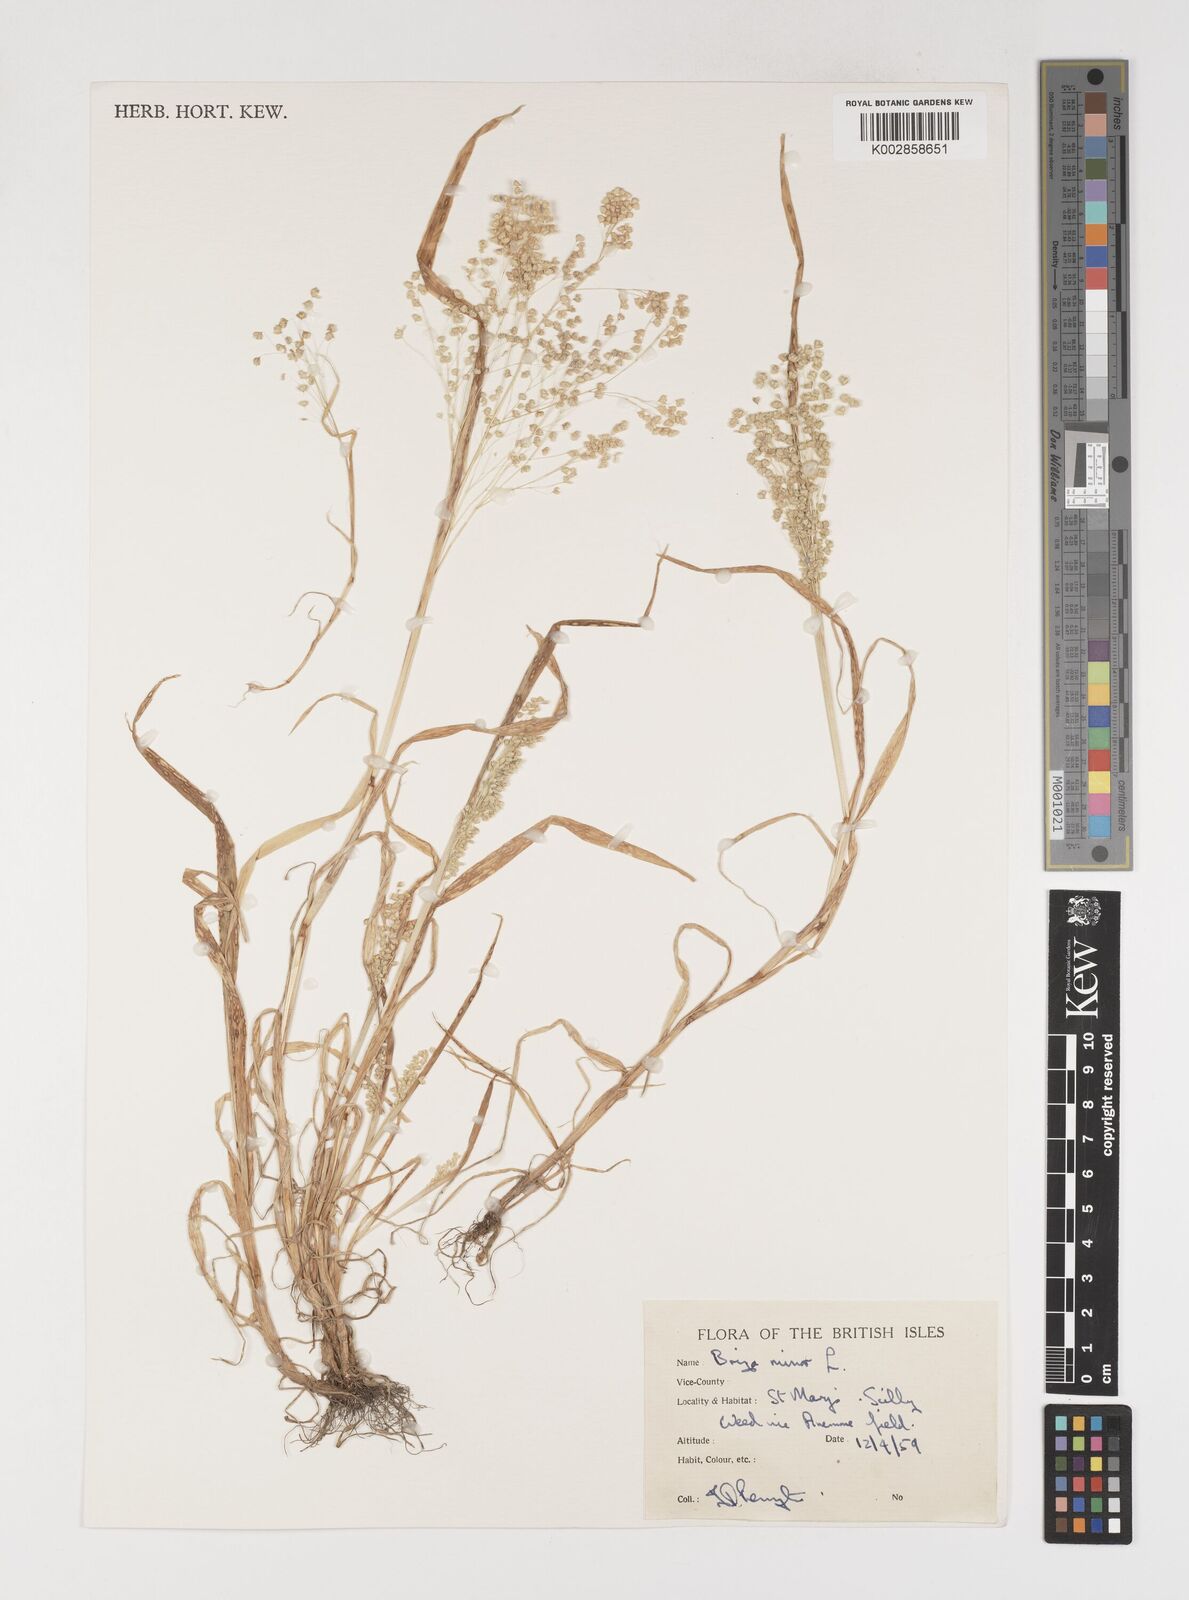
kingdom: Plantae
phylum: Tracheophyta
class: Liliopsida
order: Poales
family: Poaceae
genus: Briza
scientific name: Briza minor
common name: Lesser quaking-grass
